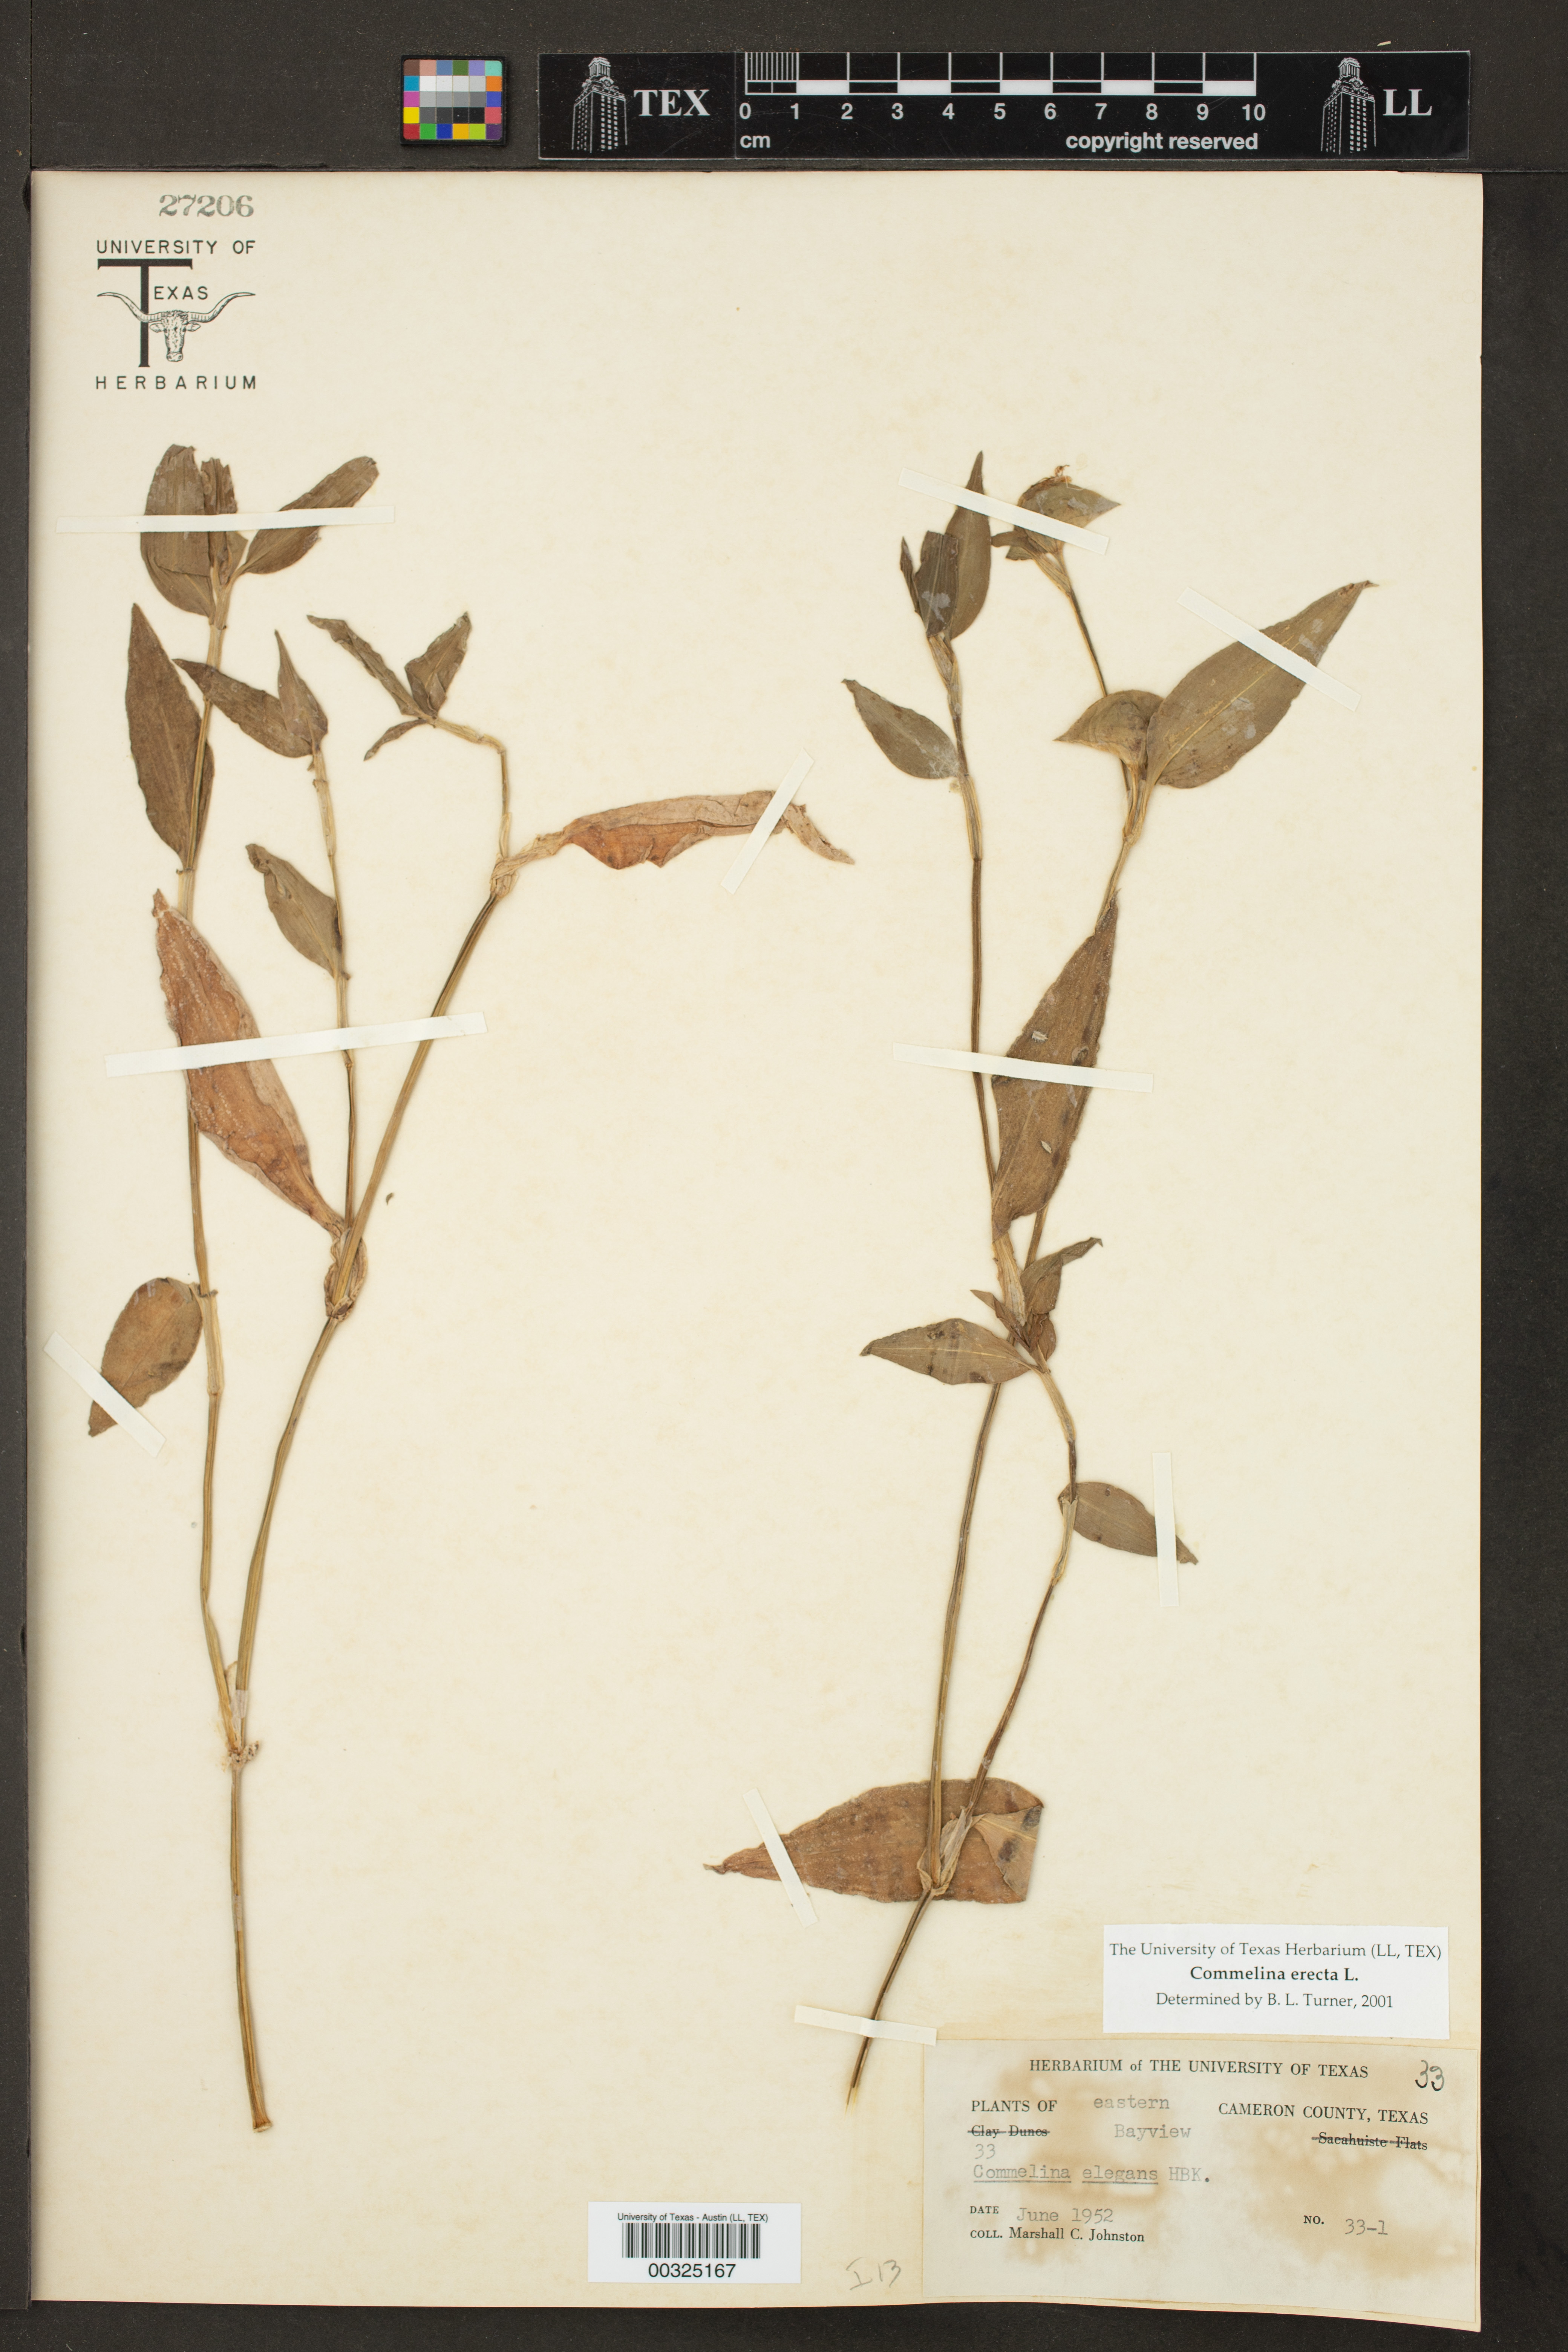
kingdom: Plantae
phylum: Tracheophyta
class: Liliopsida
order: Commelinales
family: Commelinaceae
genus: Commelina
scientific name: Commelina erecta
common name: Blousel blommetjie
